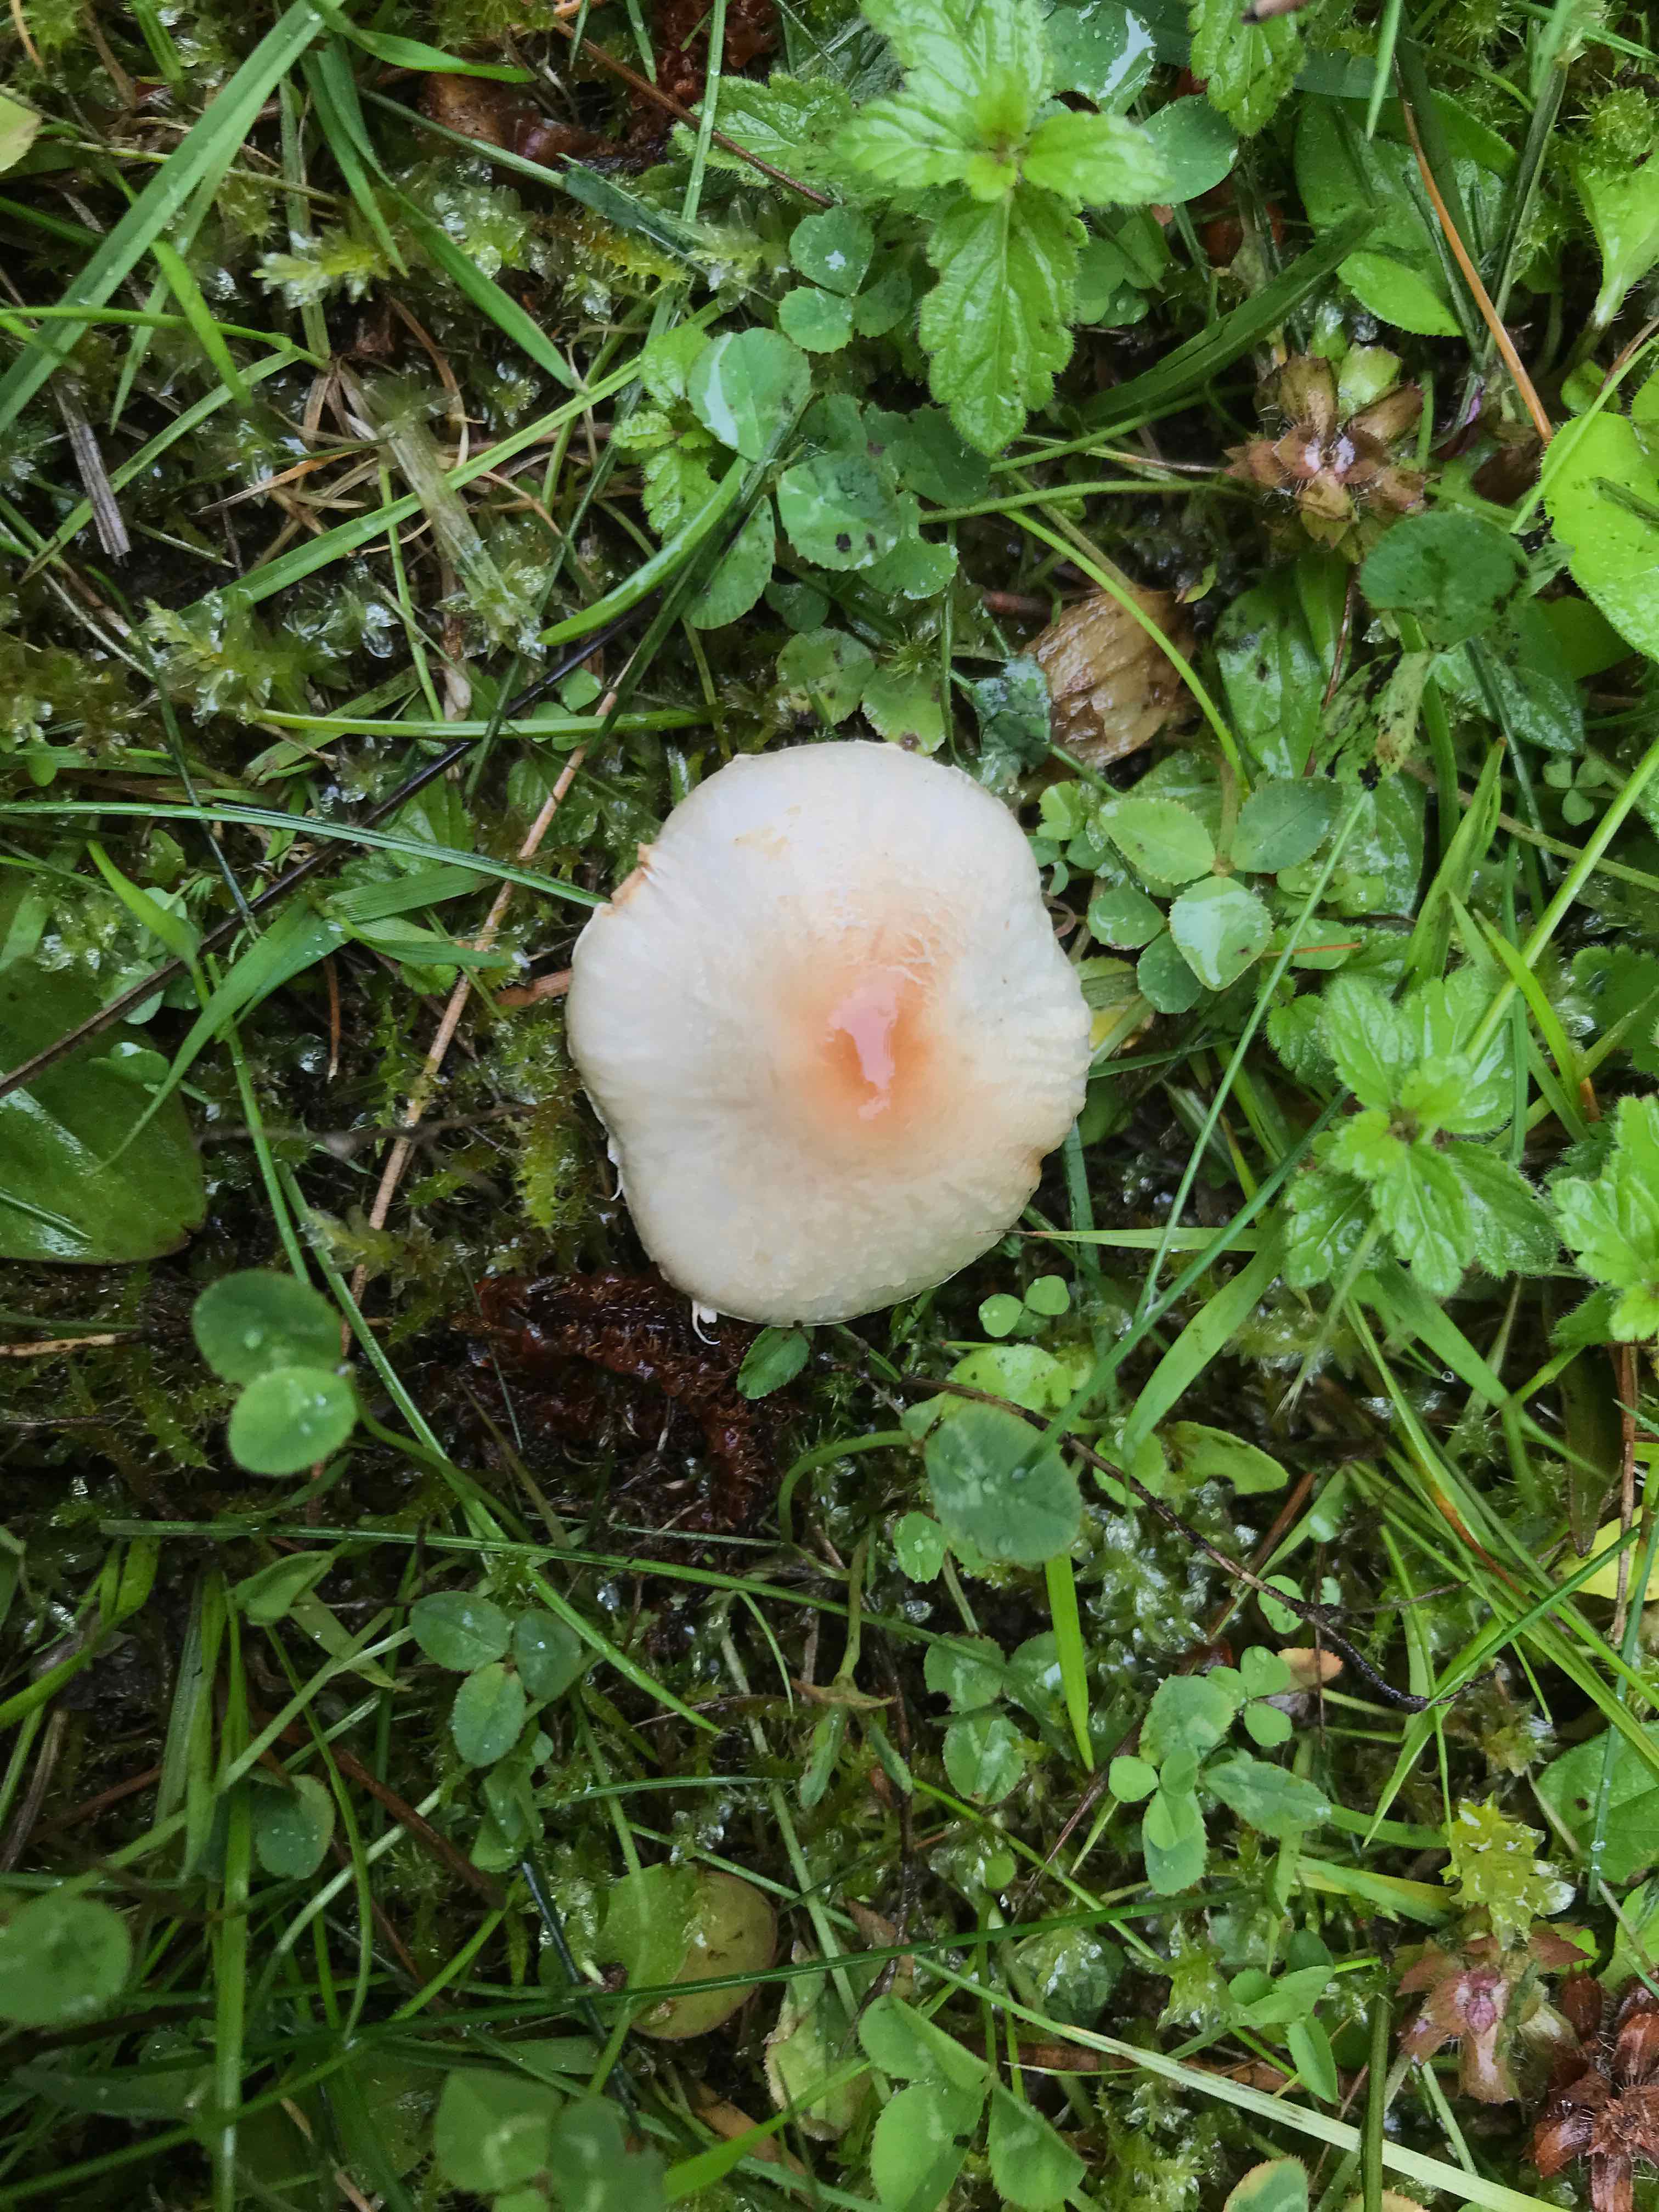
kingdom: Fungi
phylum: Basidiomycota
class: Agaricomycetes
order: Agaricales
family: Agaricaceae
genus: Lepiota
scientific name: Lepiota cristata
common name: stinkende parasolhat
